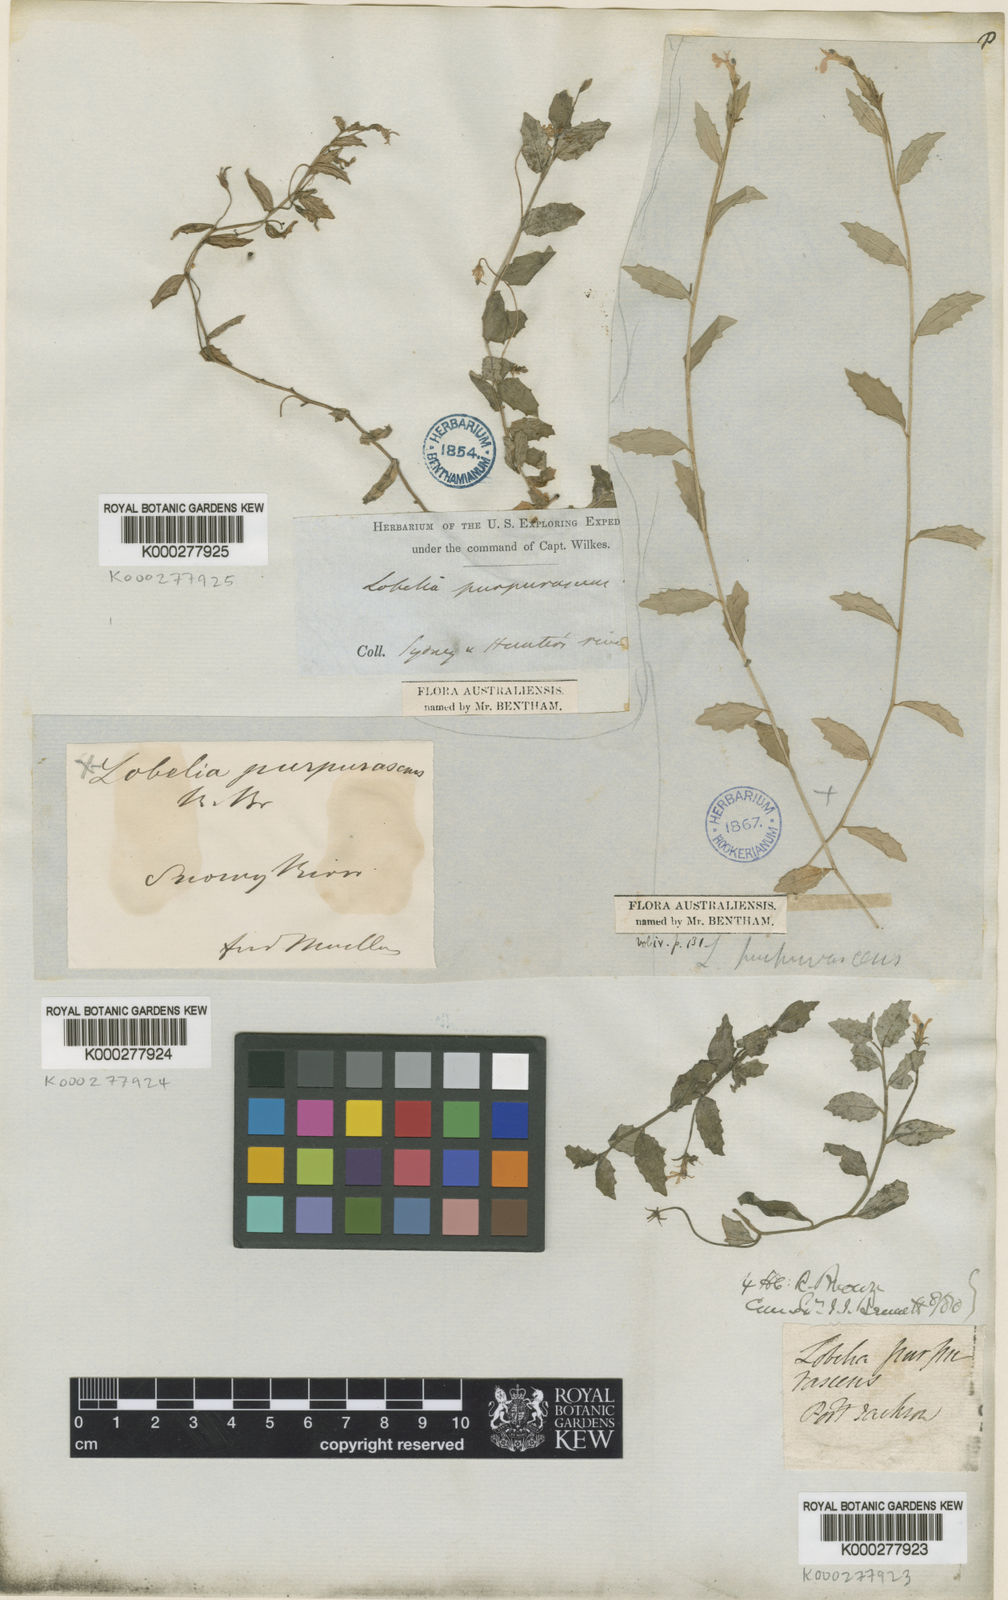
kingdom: Plantae
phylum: Tracheophyta
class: Magnoliopsida
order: Asterales
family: Campanulaceae
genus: Lobelia
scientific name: Lobelia purpurascens
